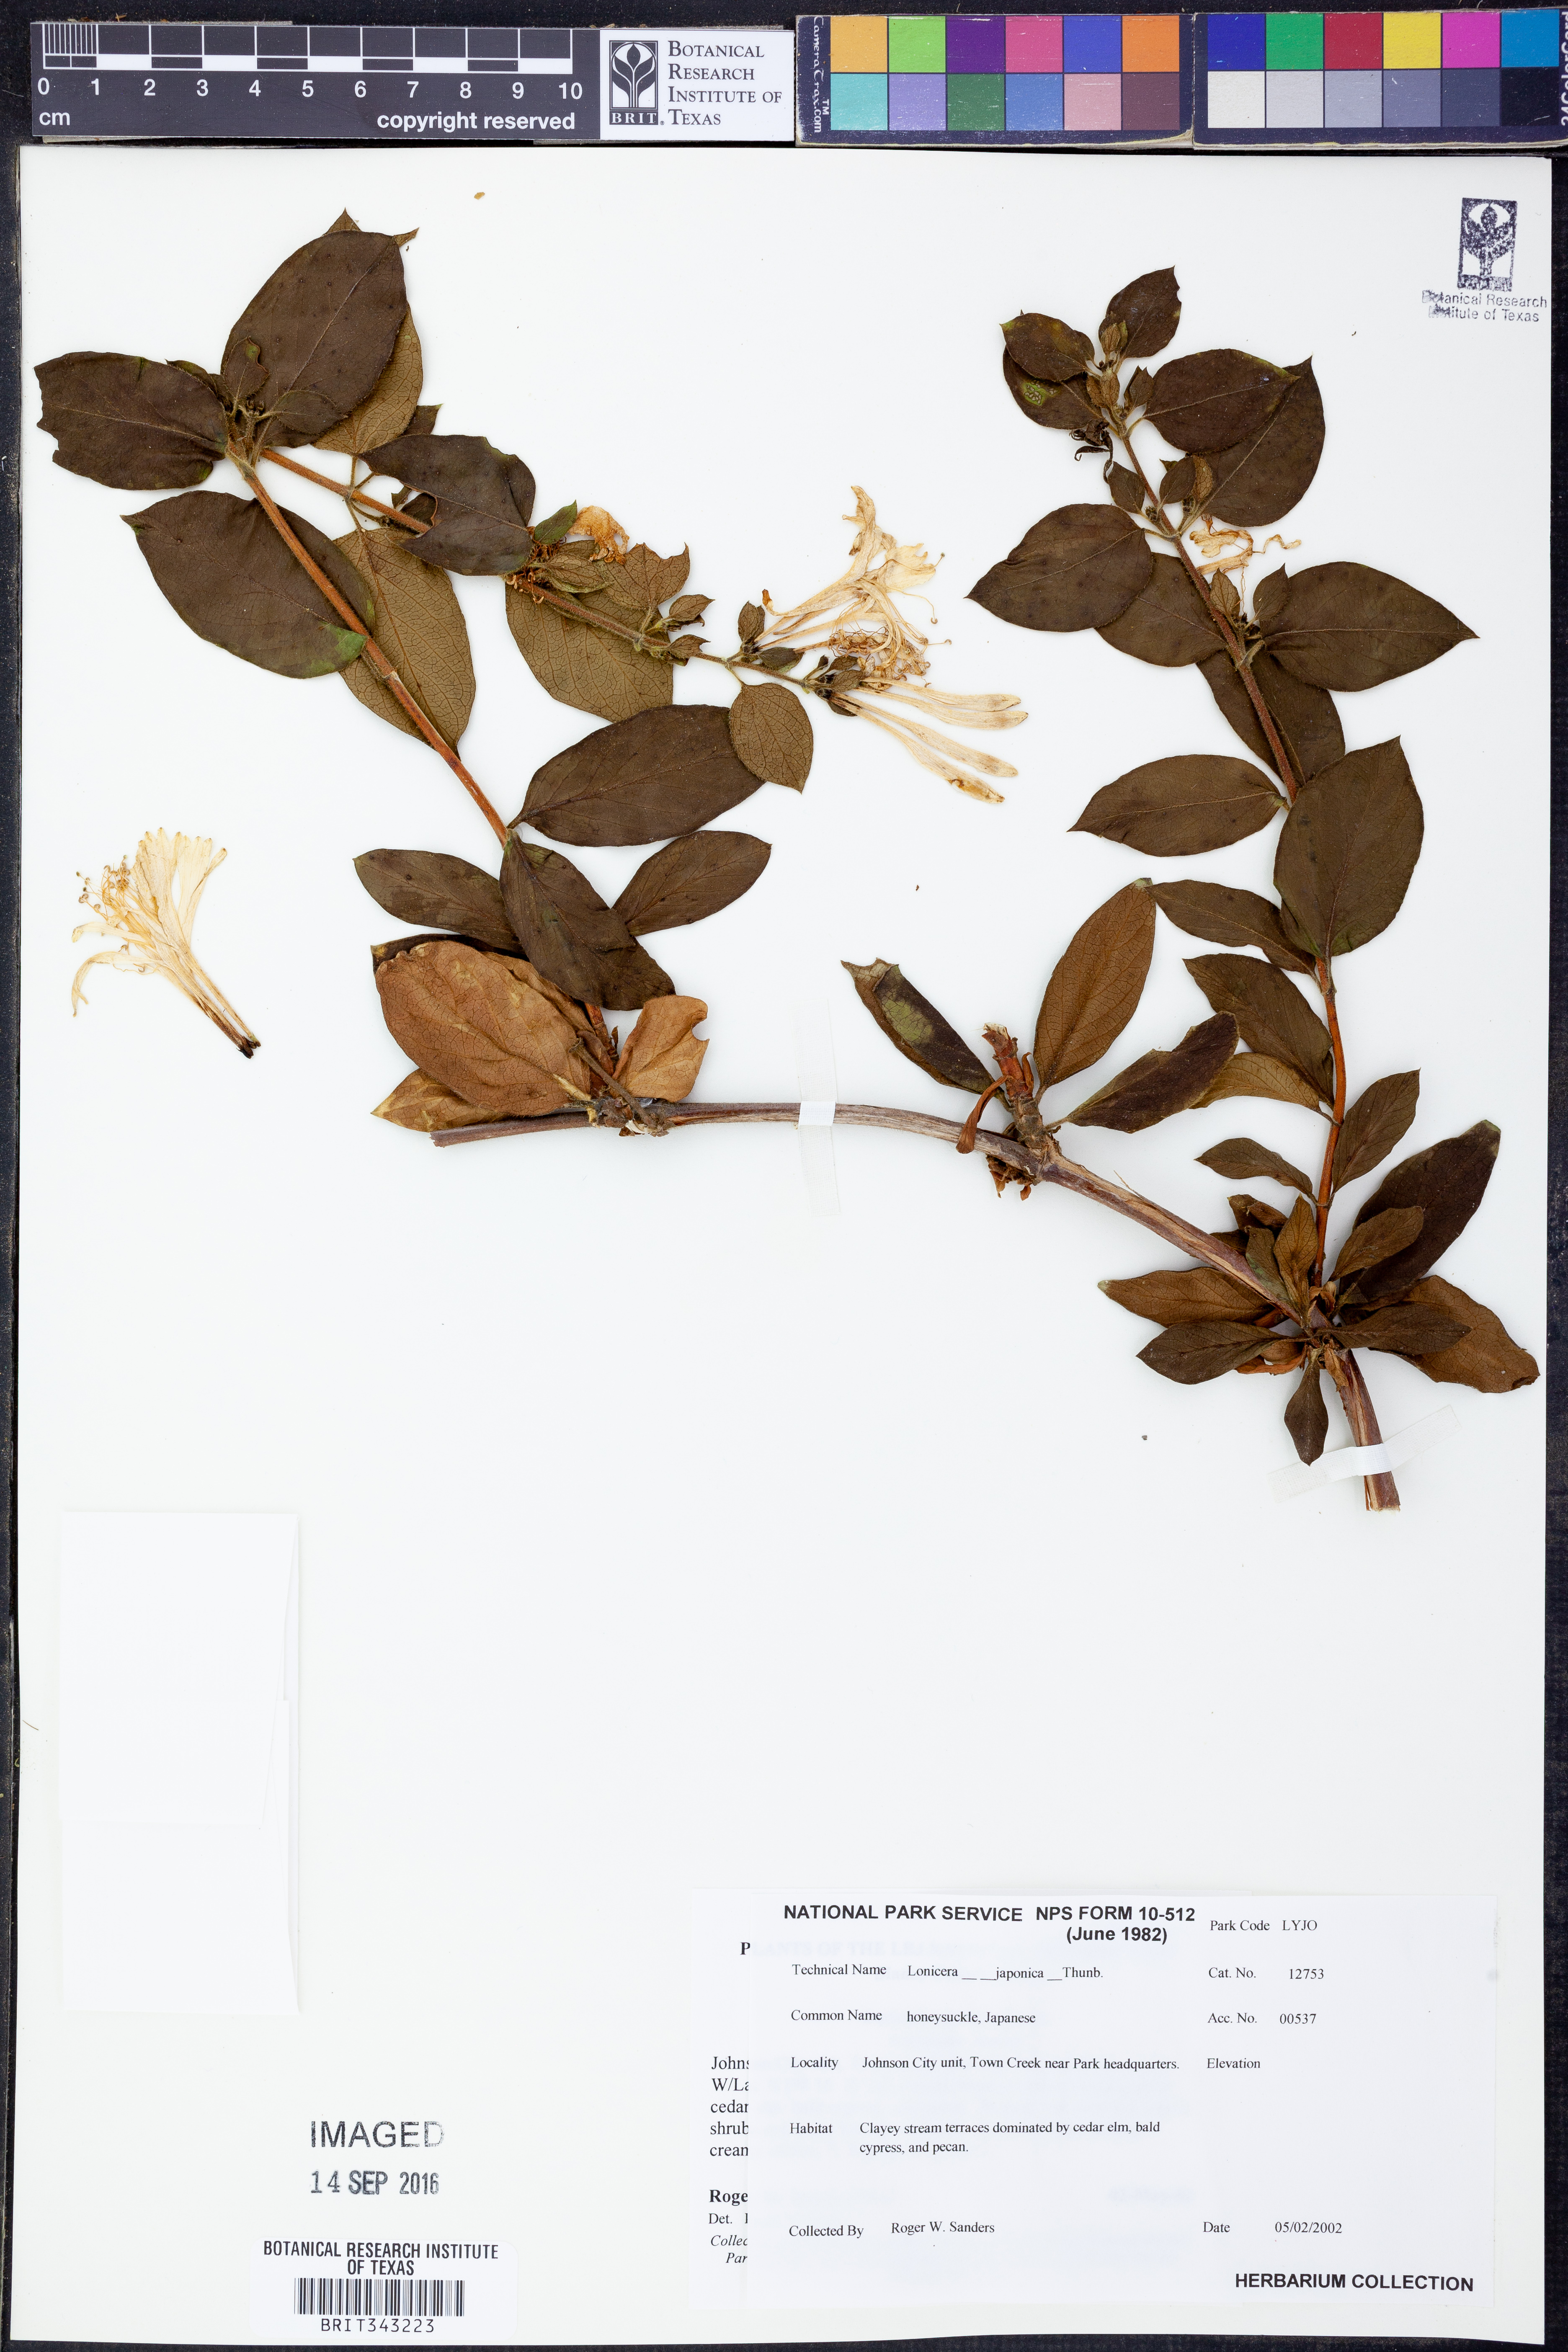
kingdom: Plantae
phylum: Tracheophyta
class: Magnoliopsida
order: Dipsacales
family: Caprifoliaceae
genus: Lonicera
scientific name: Lonicera japonica
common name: Japanese honeysuckle
